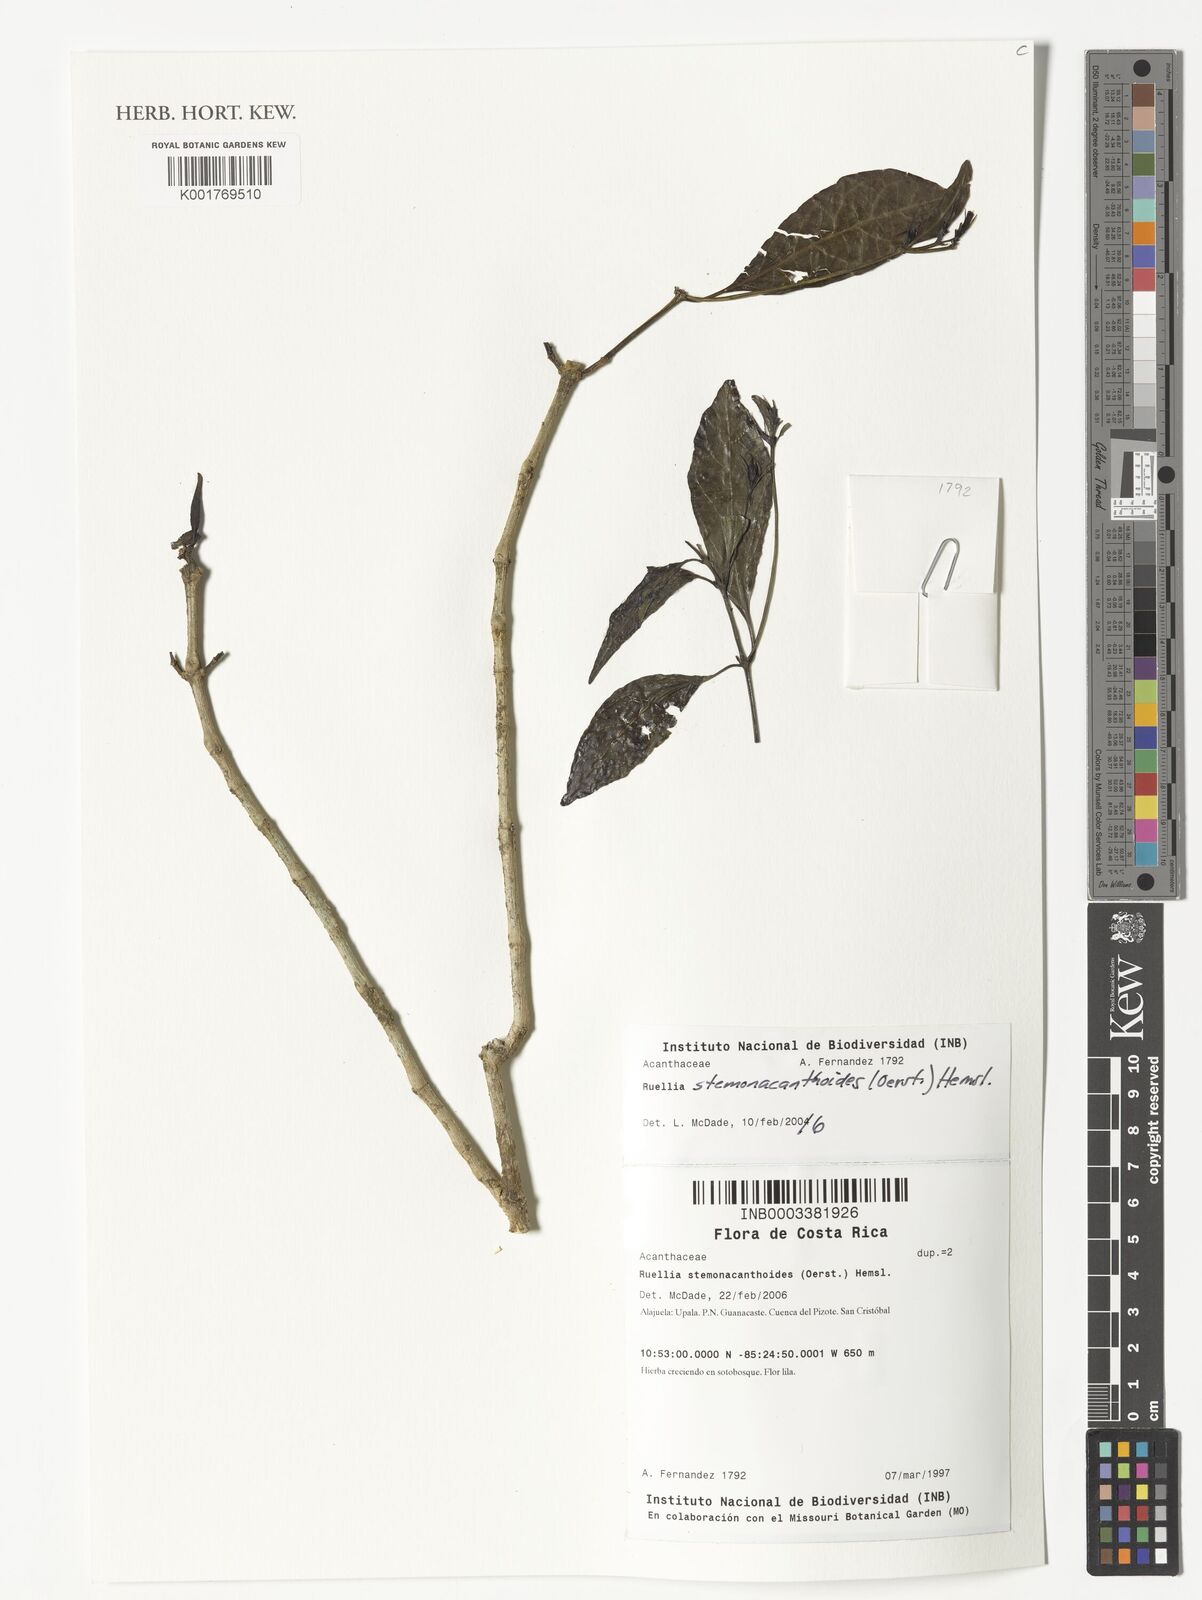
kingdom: Plantae
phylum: Tracheophyta
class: Magnoliopsida
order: Lamiales
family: Acanthaceae
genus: Ruellia
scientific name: Ruellia stemonacanthoides
